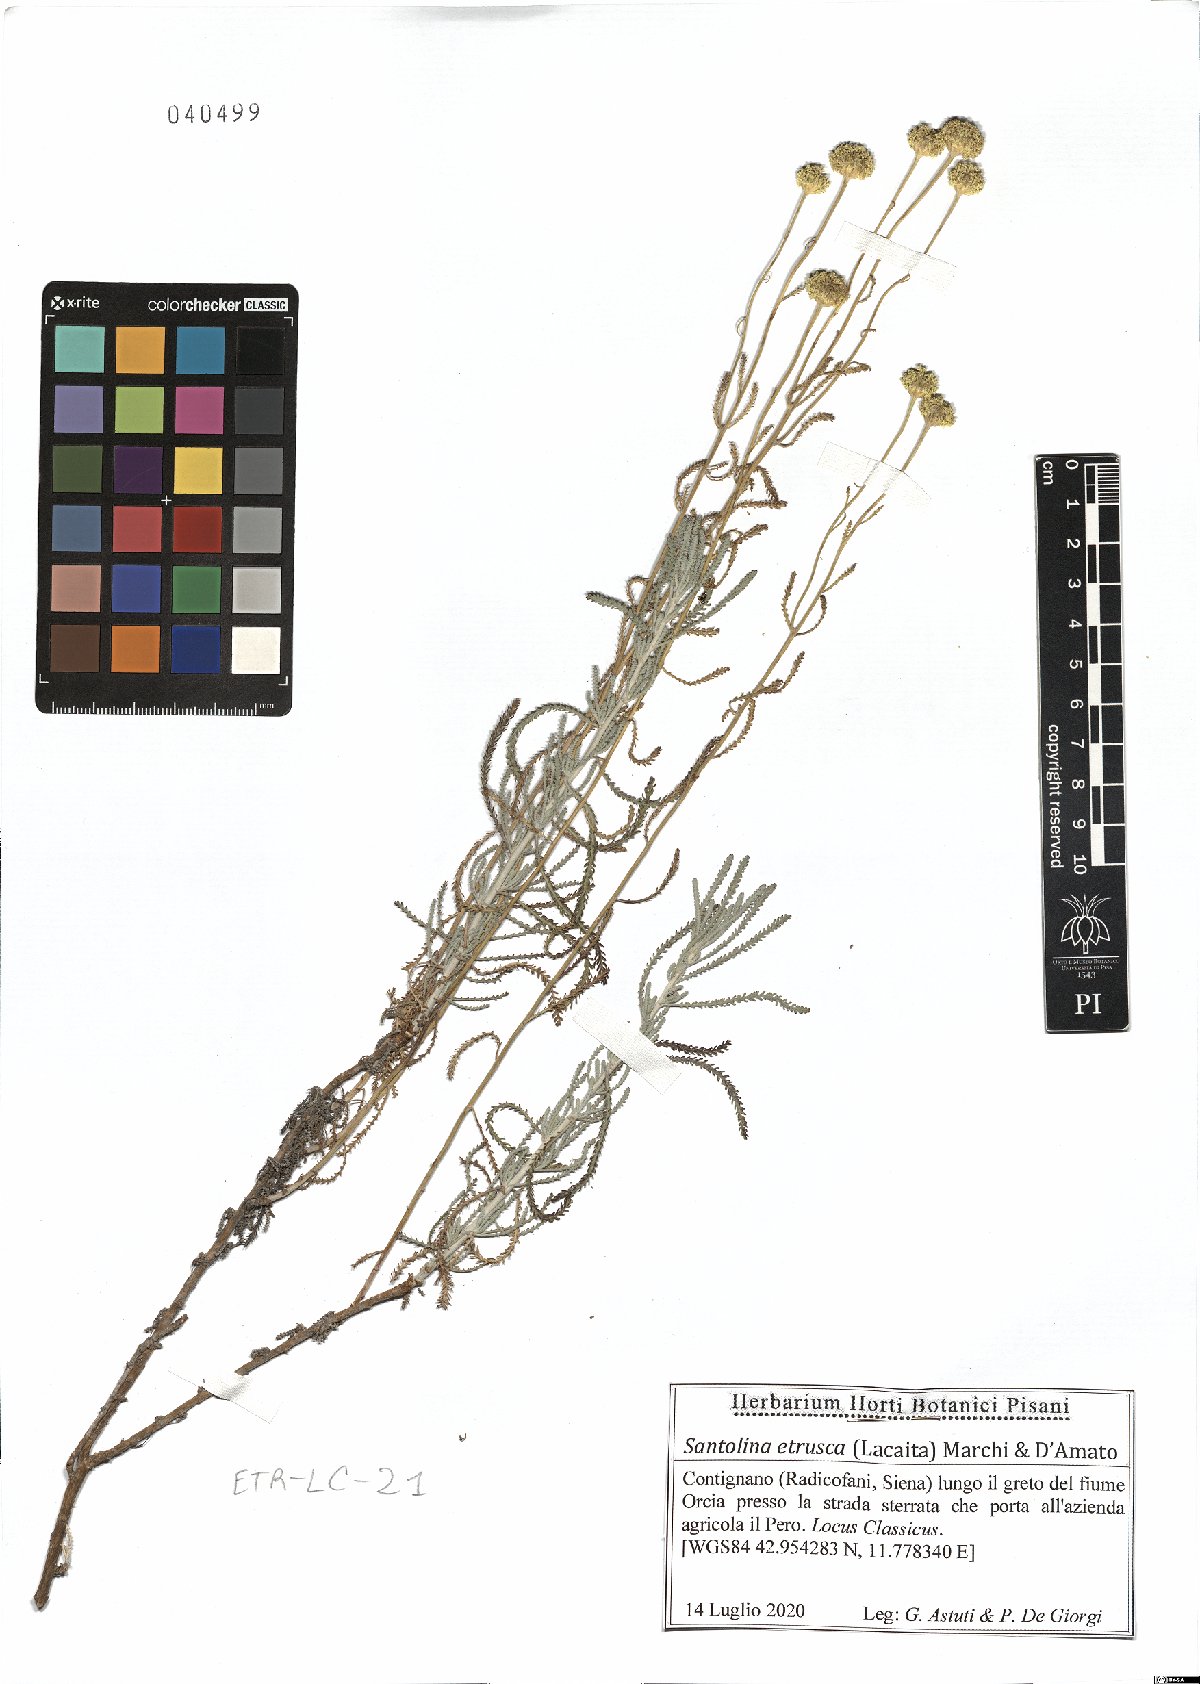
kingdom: Plantae
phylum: Tracheophyta
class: Magnoliopsida
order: Asterales
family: Asteraceae
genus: Santolina
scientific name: Santolina etrusca
